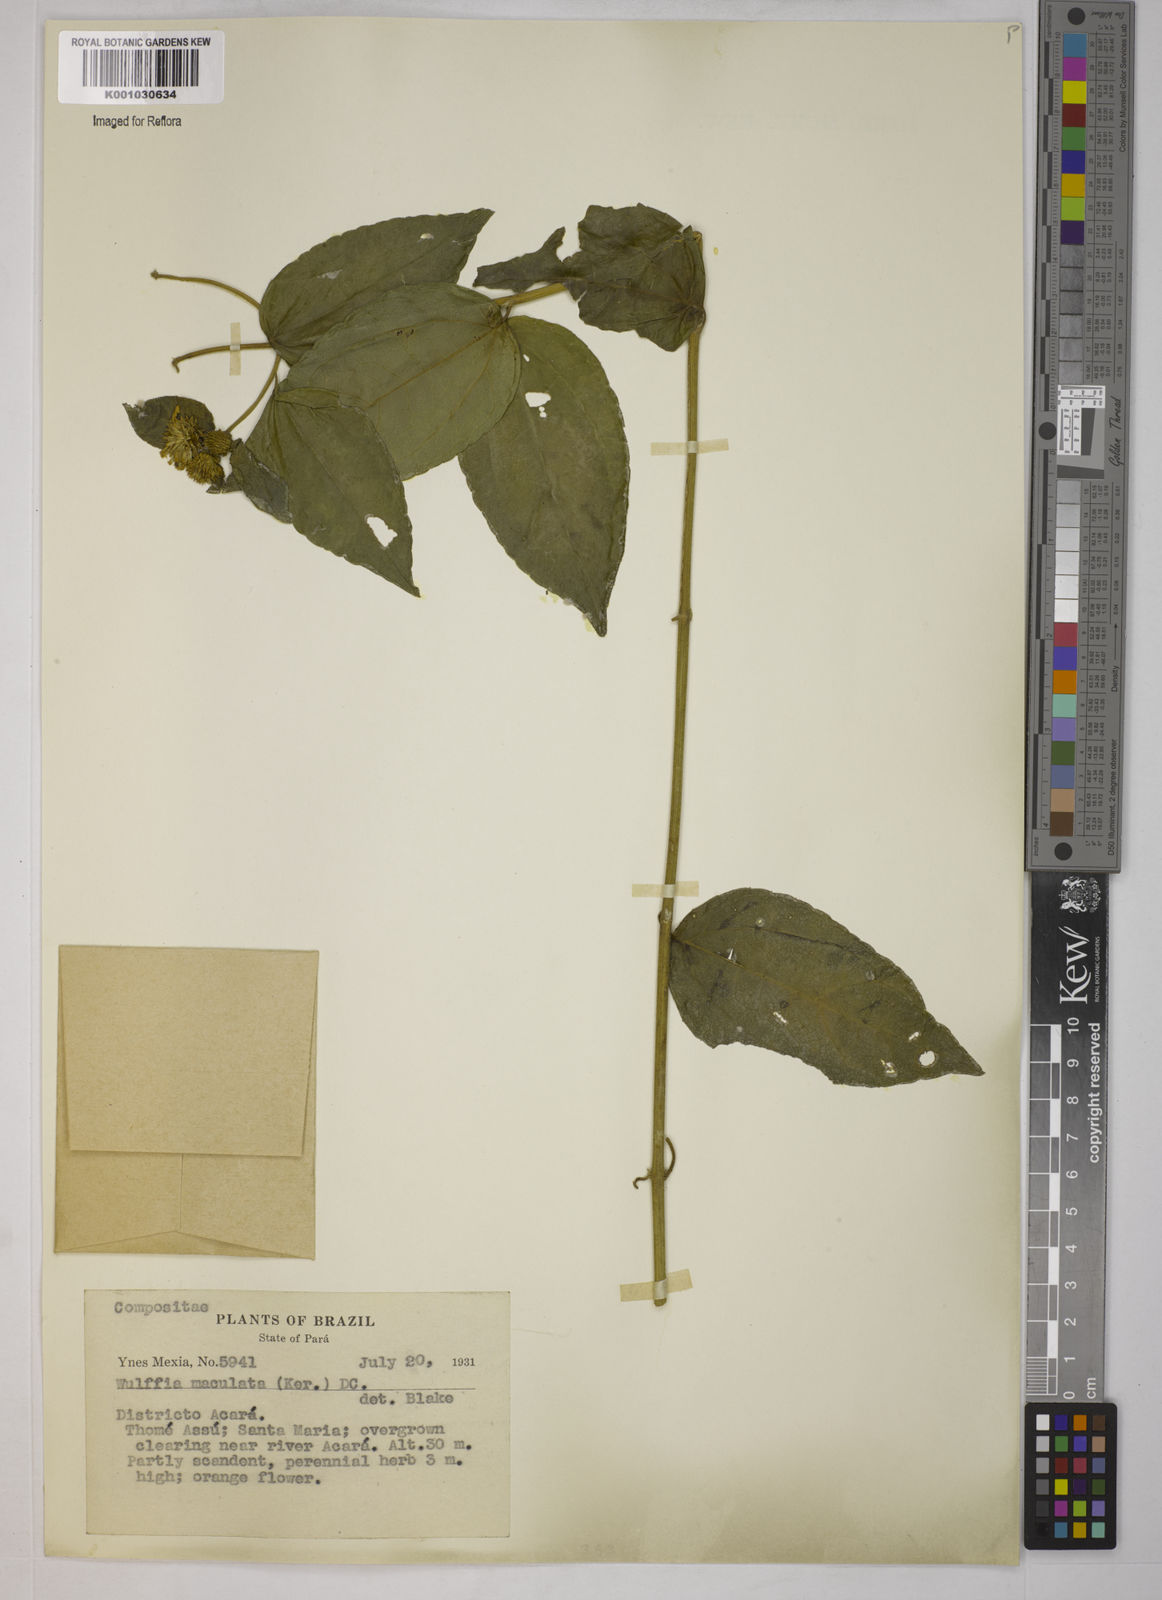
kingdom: Plantae
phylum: Tracheophyta
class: Magnoliopsida
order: Asterales
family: Asteraceae
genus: Tilesia
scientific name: Tilesia baccata
